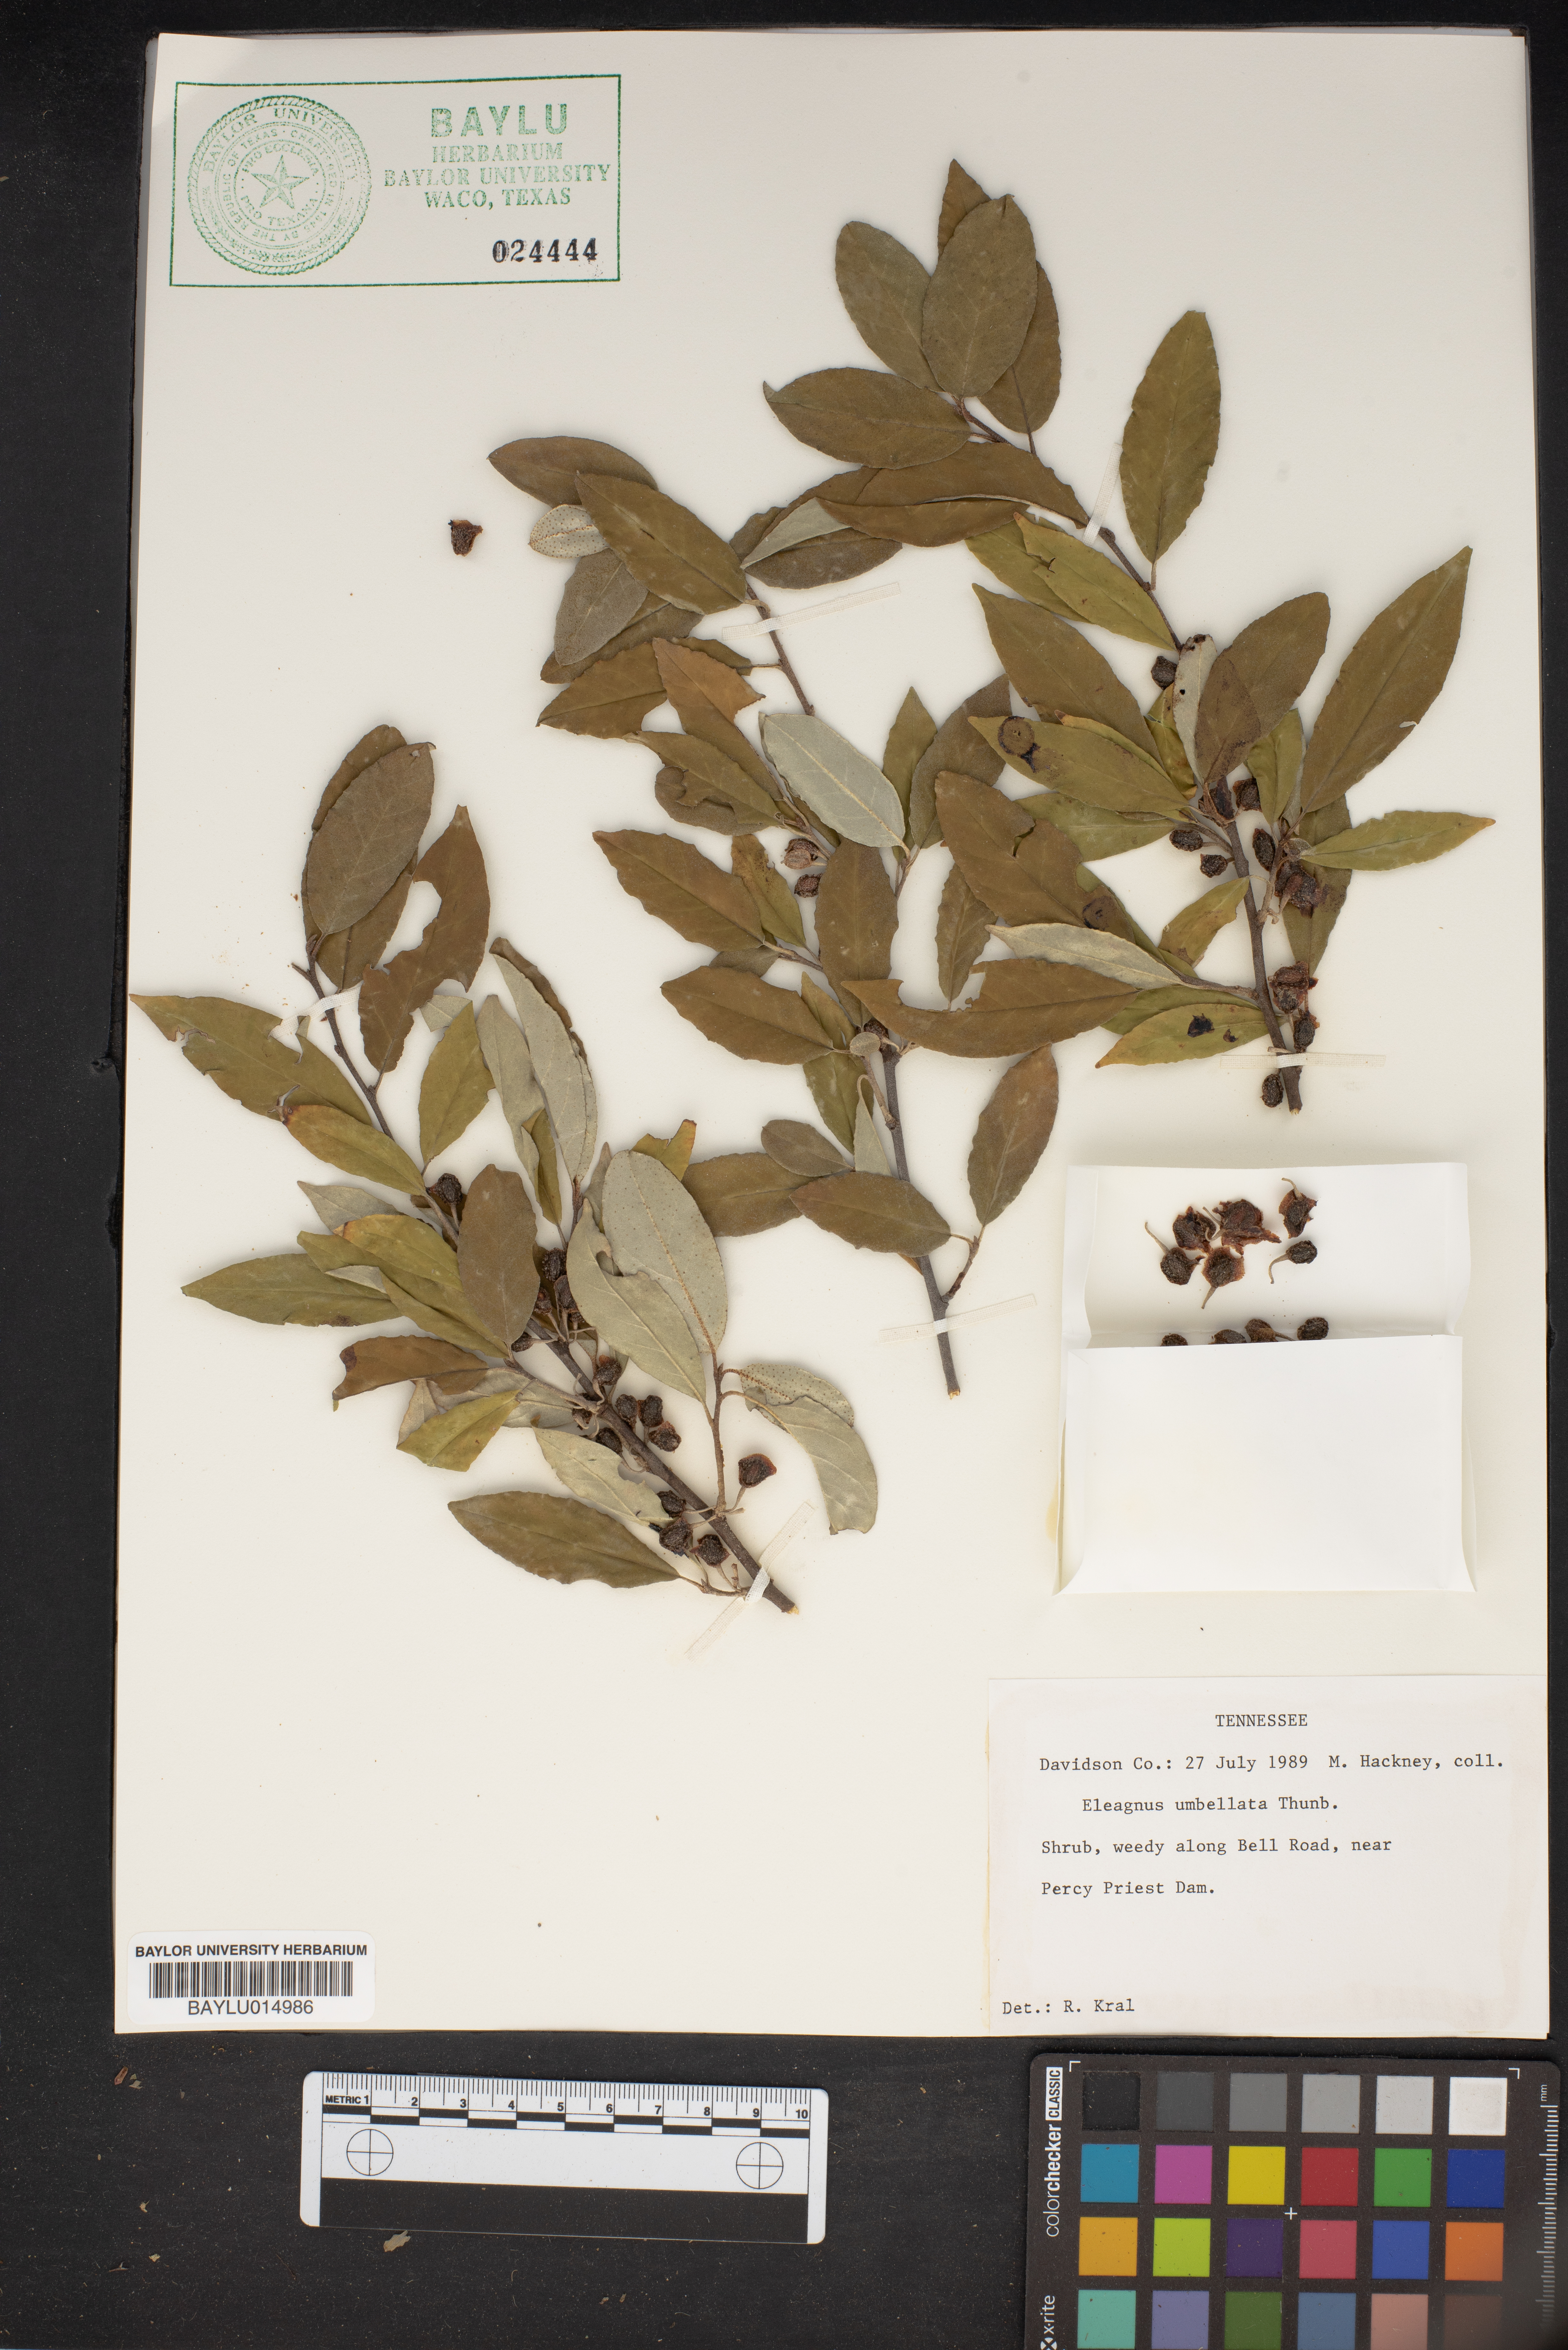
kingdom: Plantae
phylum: Tracheophyta
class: Magnoliopsida
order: Rosales
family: Elaeagnaceae
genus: Elaeagnus
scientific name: Elaeagnus umbellata
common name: Autumn olive
